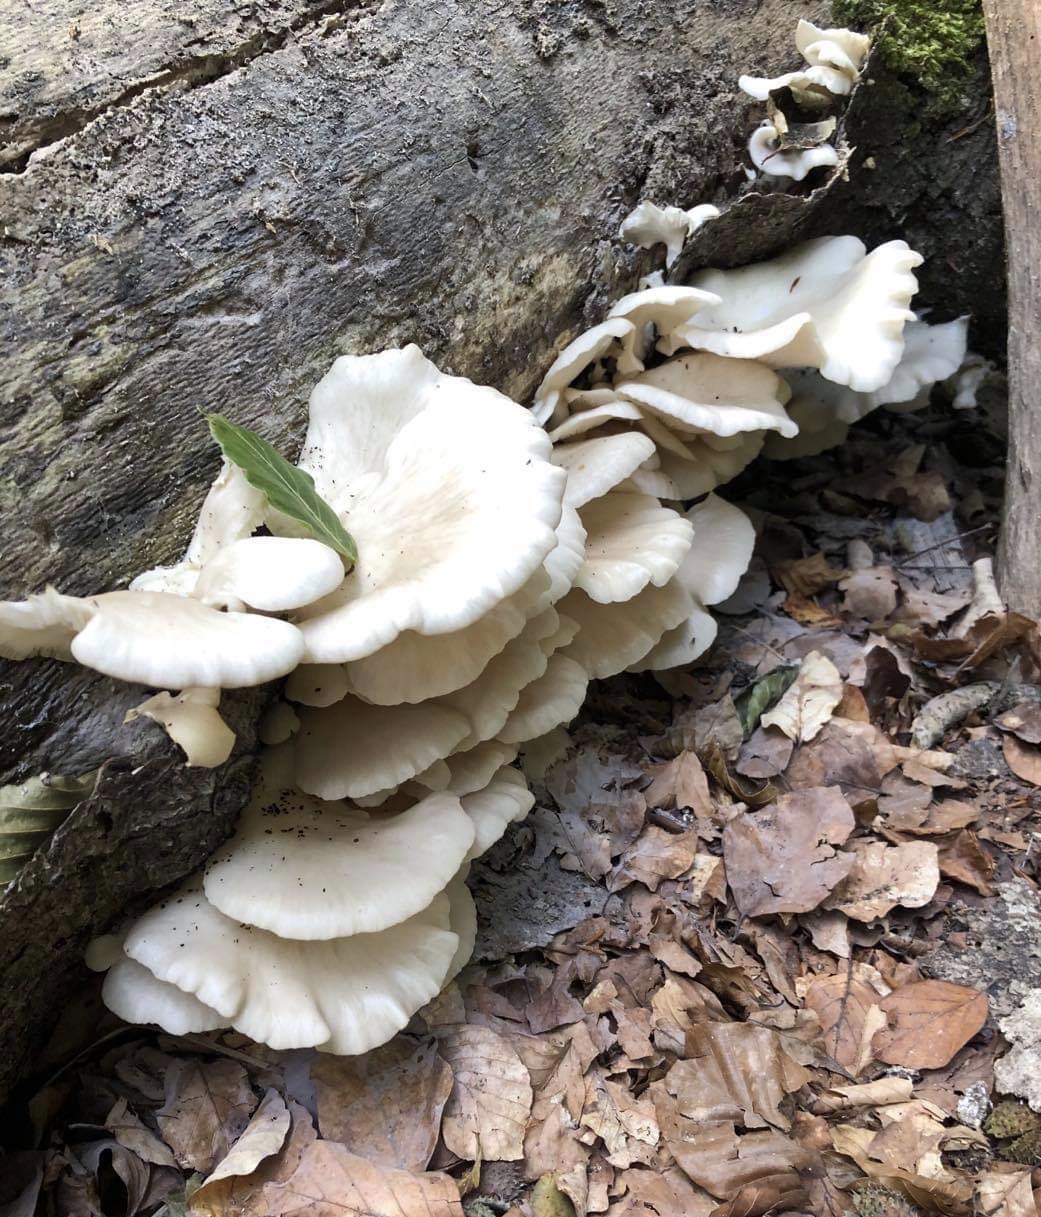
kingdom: Fungi
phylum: Basidiomycota
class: Agaricomycetes
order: Agaricales
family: Pleurotaceae
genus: Pleurotus
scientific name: Pleurotus pulmonarius
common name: sommer-østershat
